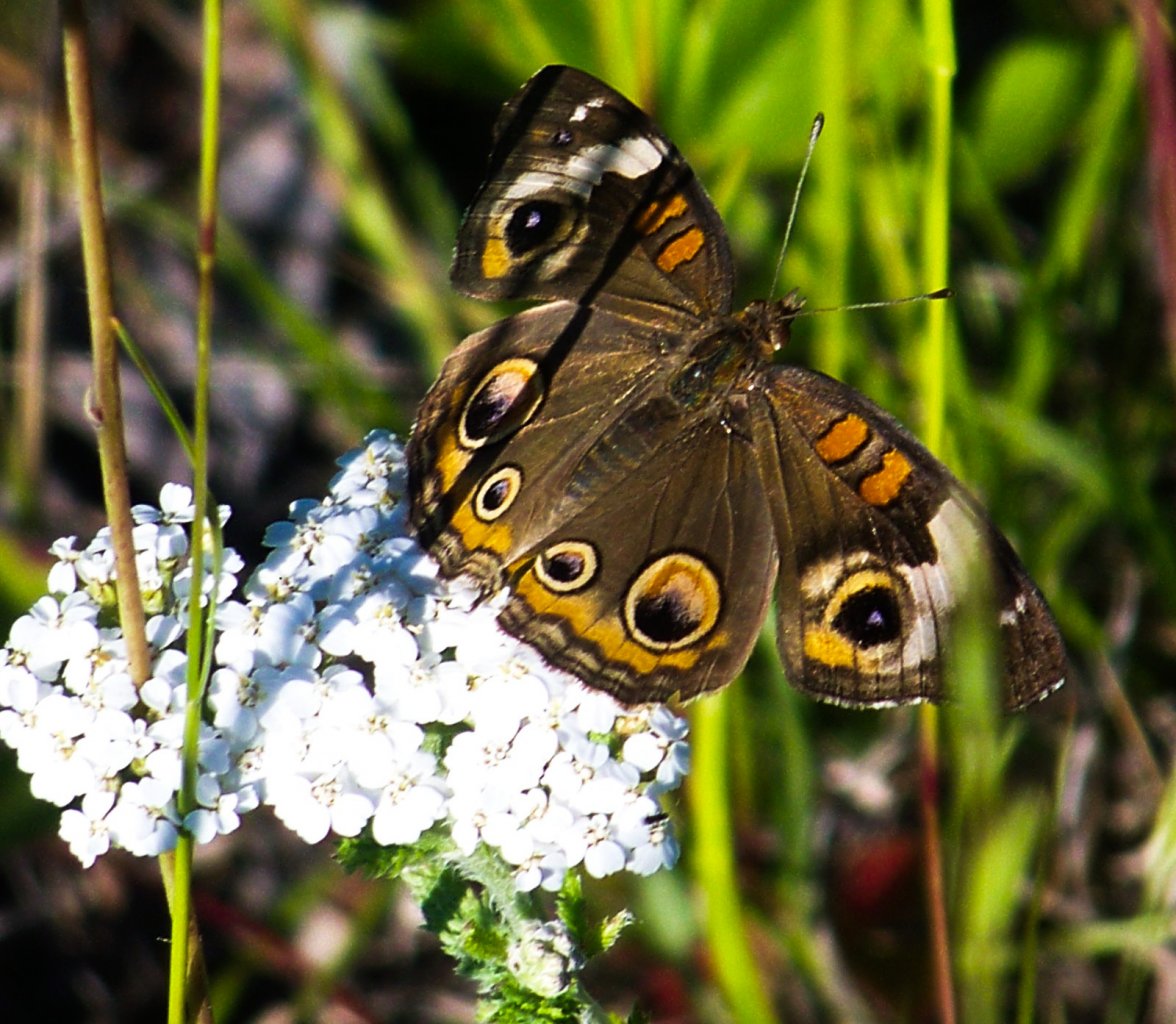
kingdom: Animalia
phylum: Arthropoda
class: Insecta
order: Lepidoptera
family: Nymphalidae
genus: Junonia
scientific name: Junonia coenia
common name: Common Buckeye
